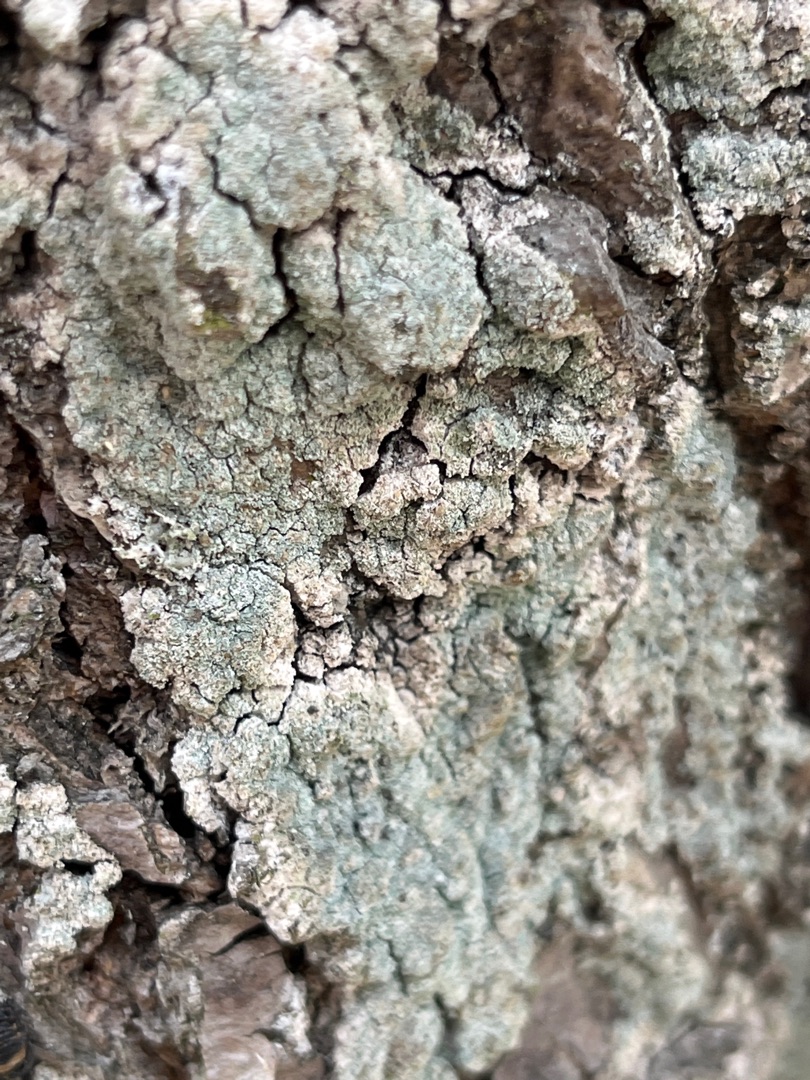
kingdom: Fungi
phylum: Ascomycota
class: Lecanoromycetes
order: Lecanorales
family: Stereocaulaceae
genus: Lepraria
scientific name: Lepraria
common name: Støvlav
